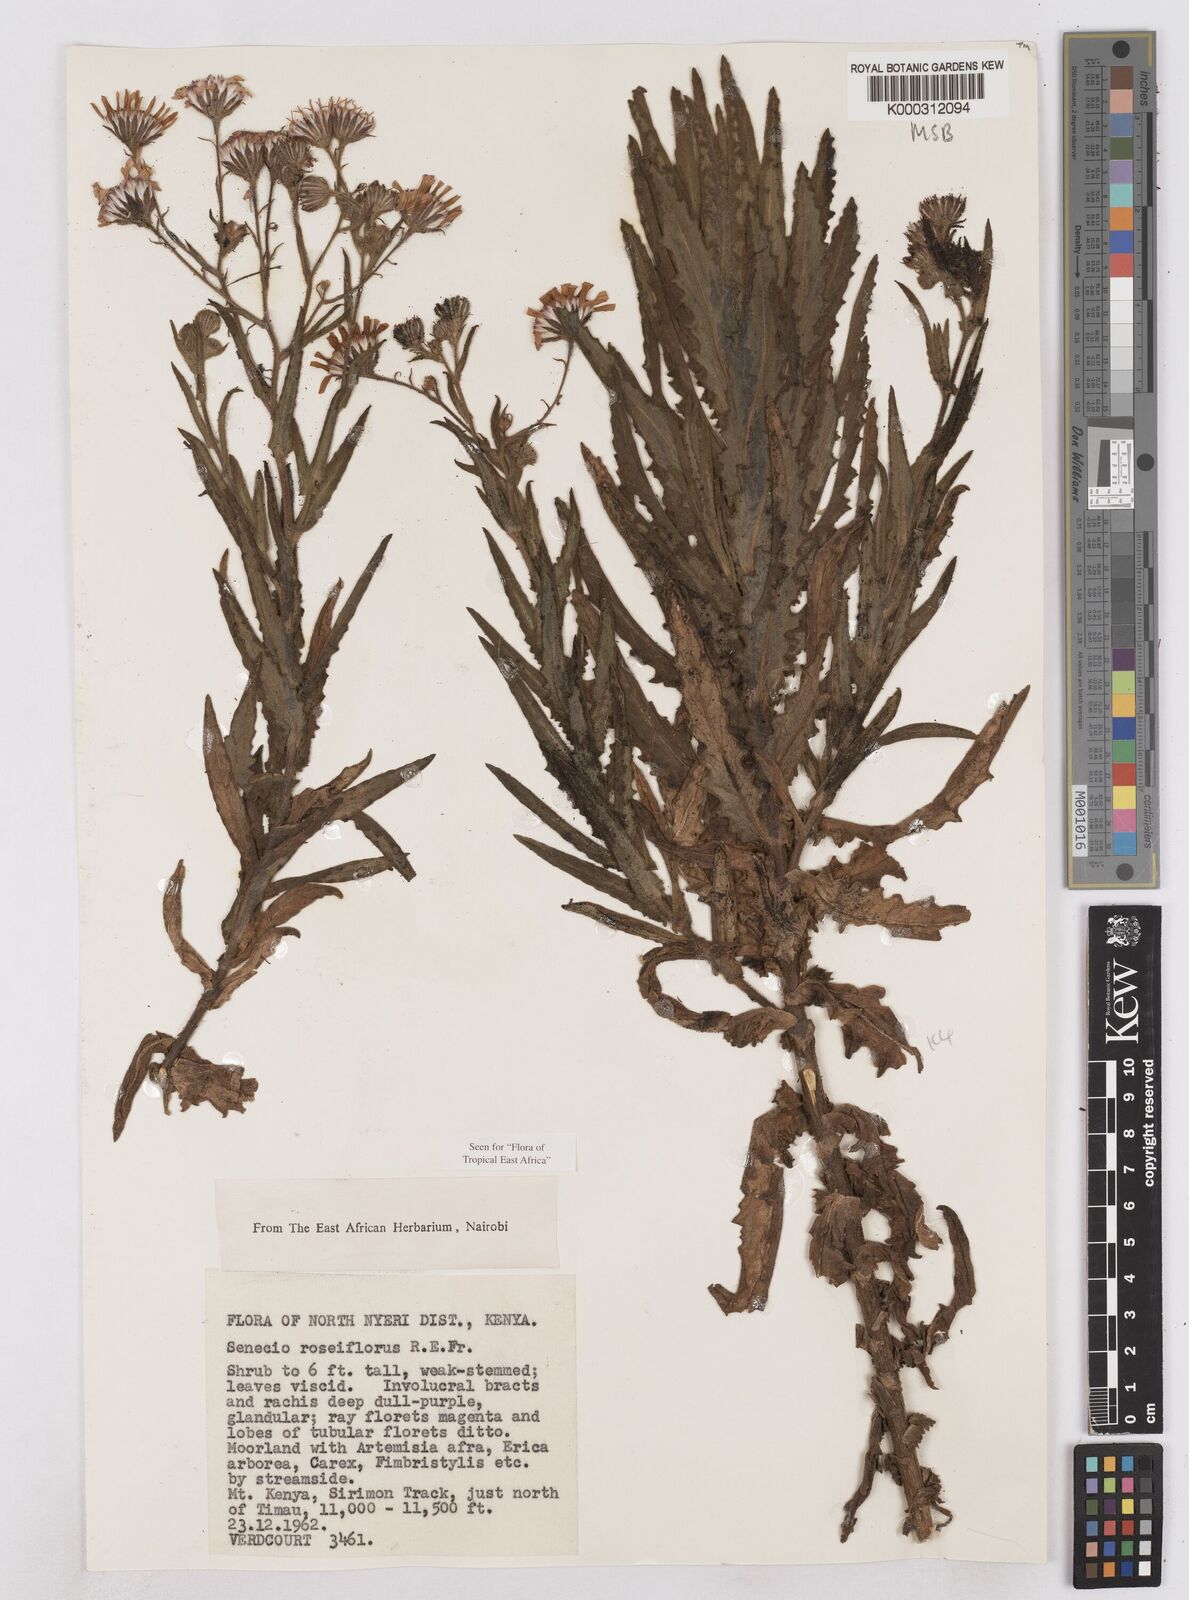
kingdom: Plantae
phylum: Tracheophyta
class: Magnoliopsida
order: Asterales
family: Asteraceae
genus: Senecio
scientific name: Senecio roseiflorus
